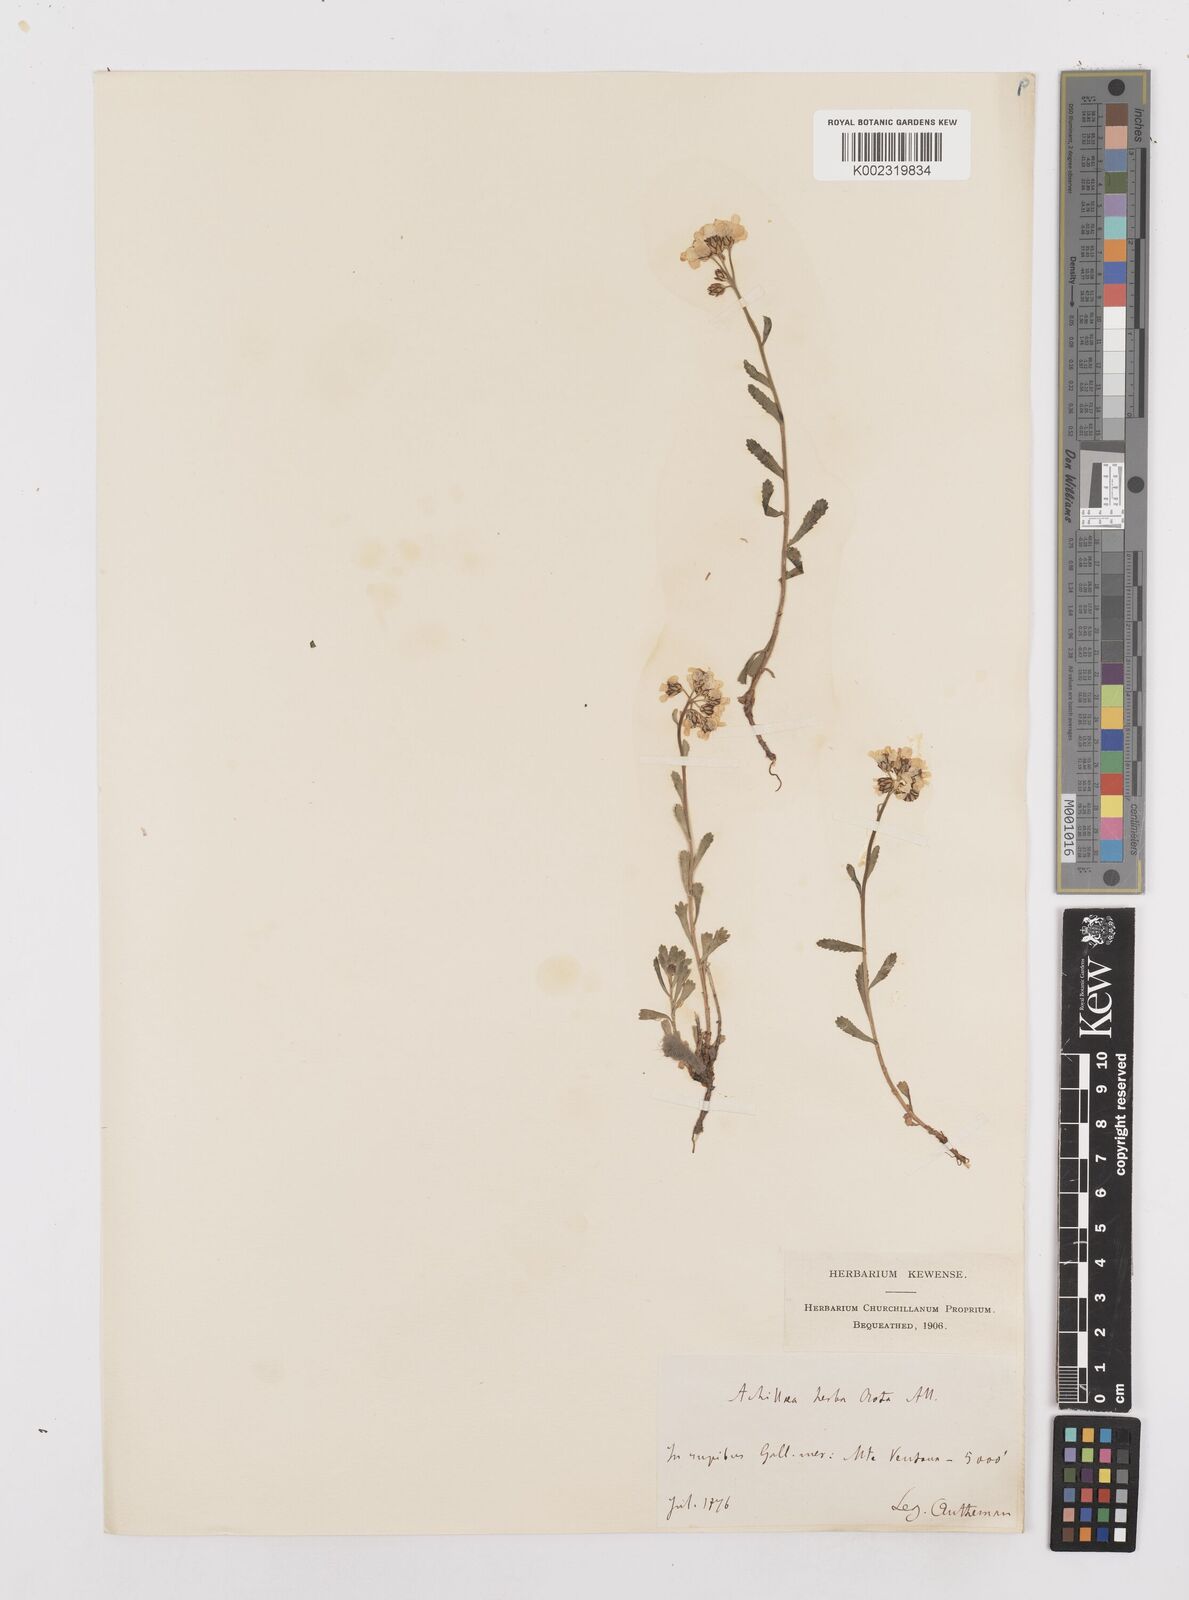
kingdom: Plantae
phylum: Tracheophyta
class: Magnoliopsida
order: Asterales
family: Asteraceae
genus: Achillea
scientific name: Achillea erba-rotta
